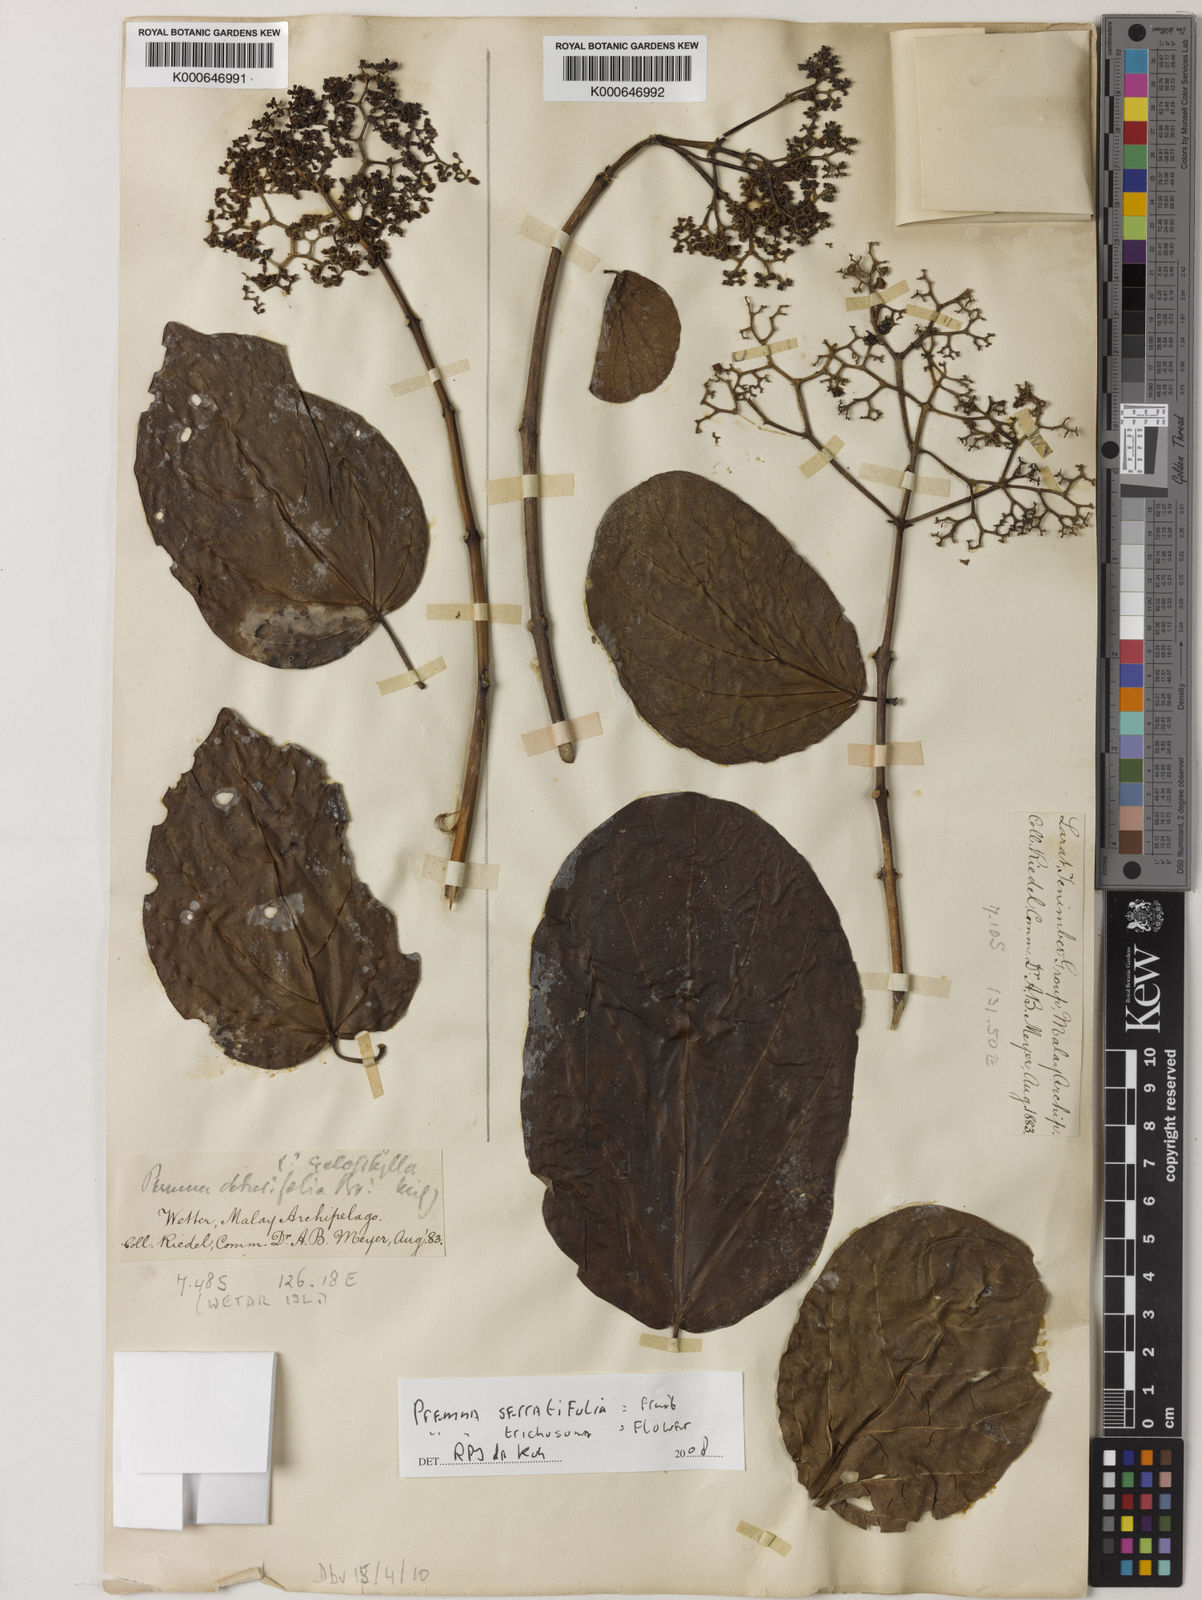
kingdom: Plantae
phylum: Tracheophyta
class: Magnoliopsida
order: Lamiales
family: Lamiaceae
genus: Premna
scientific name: Premna trichostoma
